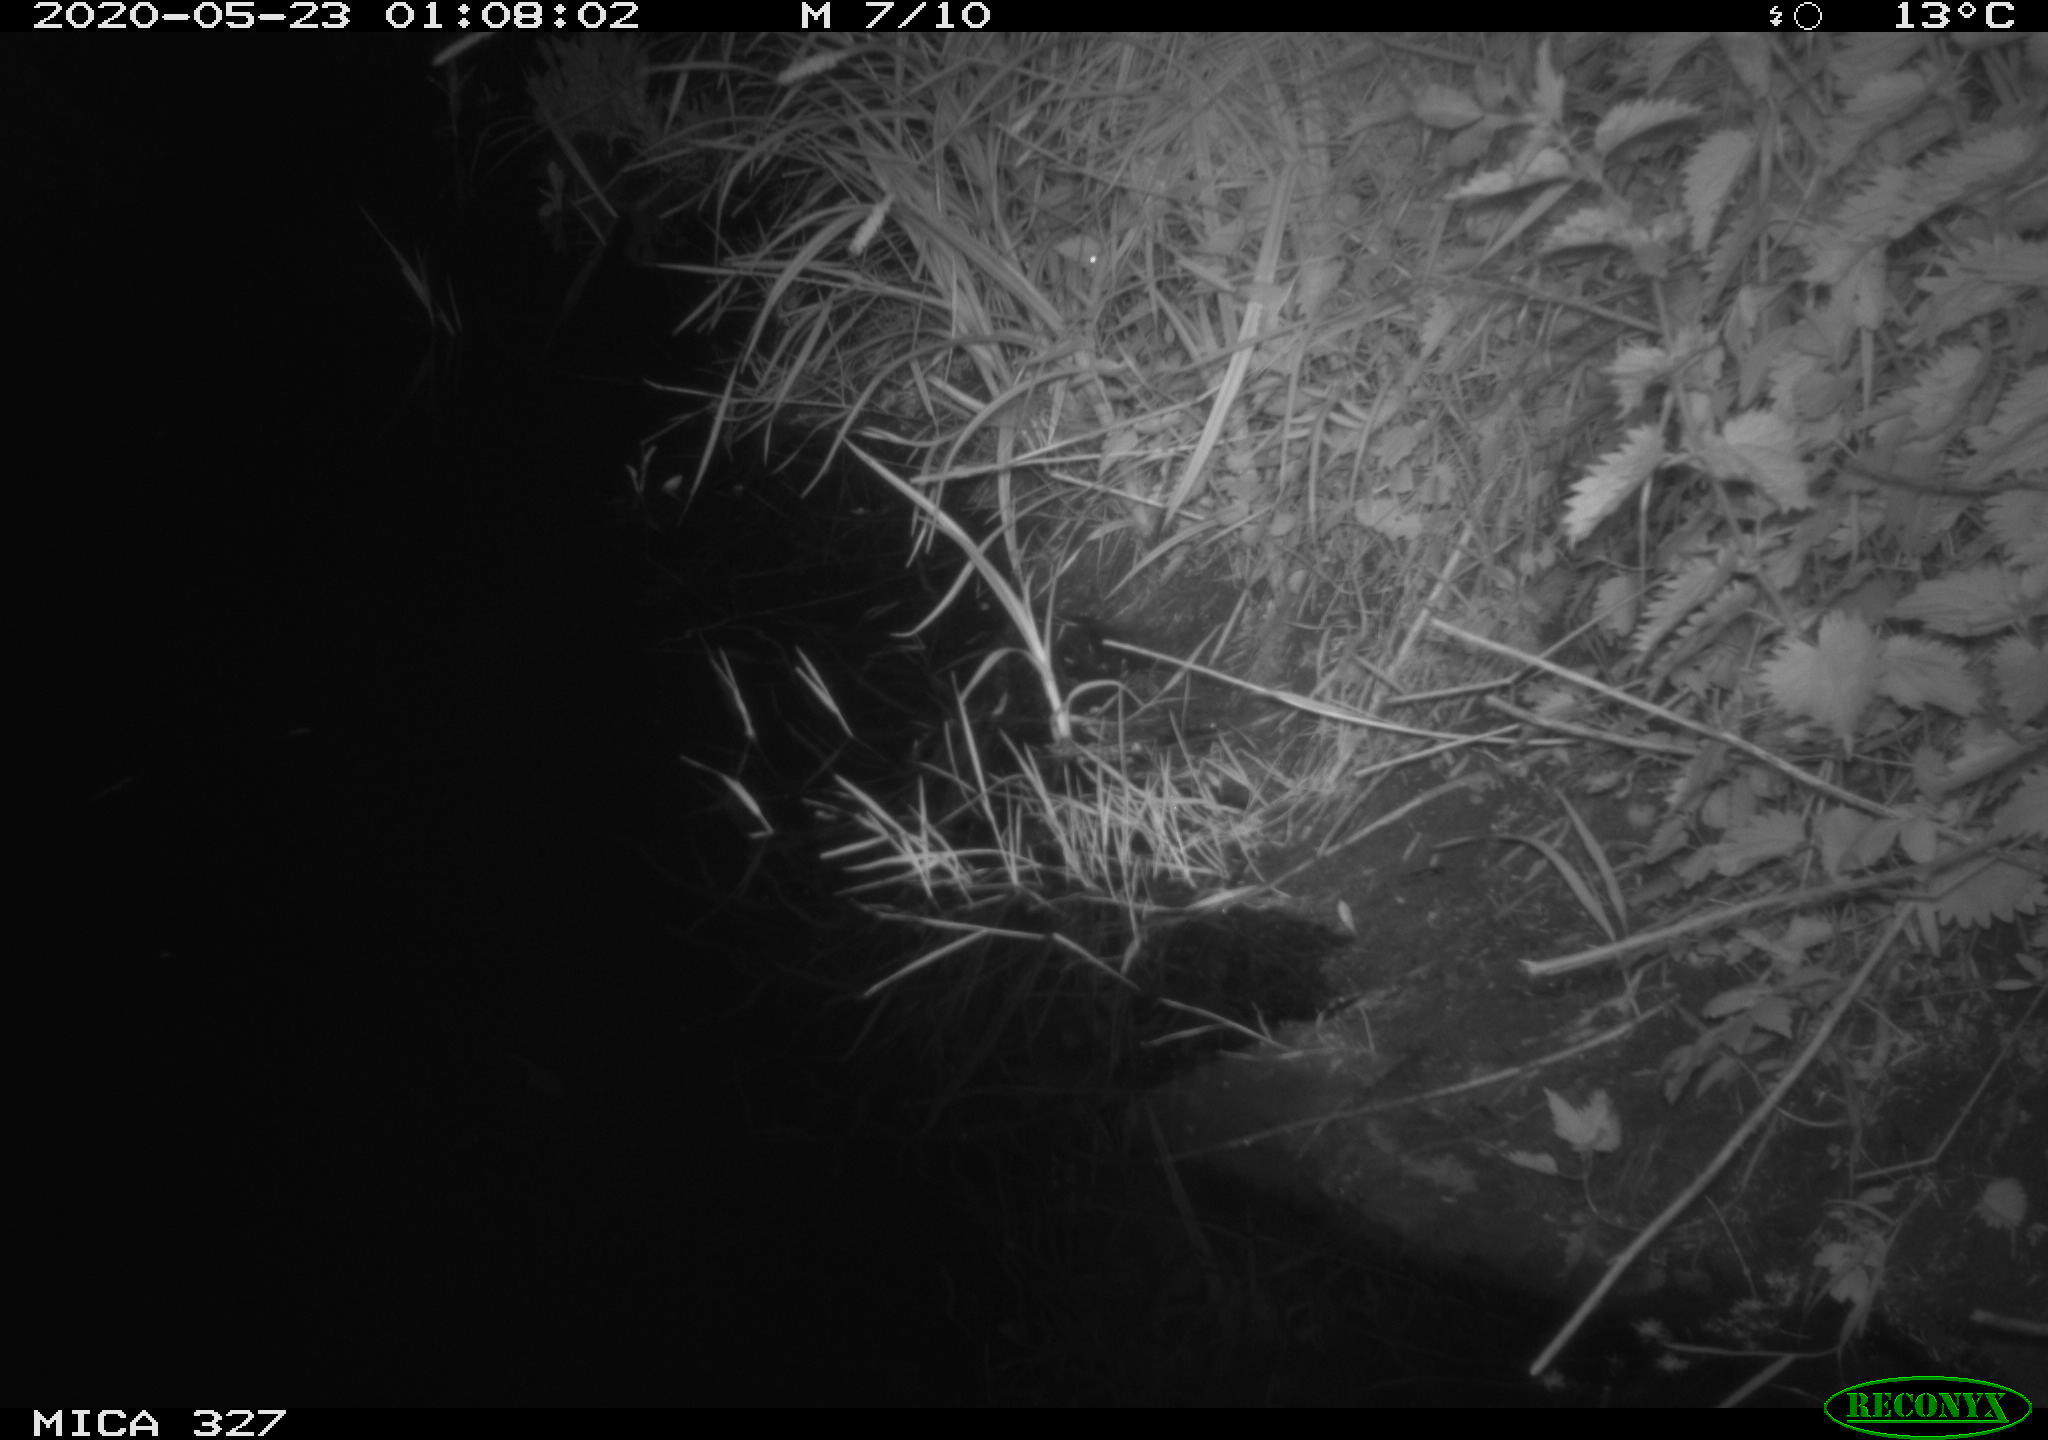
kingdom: Animalia
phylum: Chordata
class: Mammalia
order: Rodentia
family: Muridae
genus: Rattus
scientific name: Rattus norvegicus
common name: Brown rat
